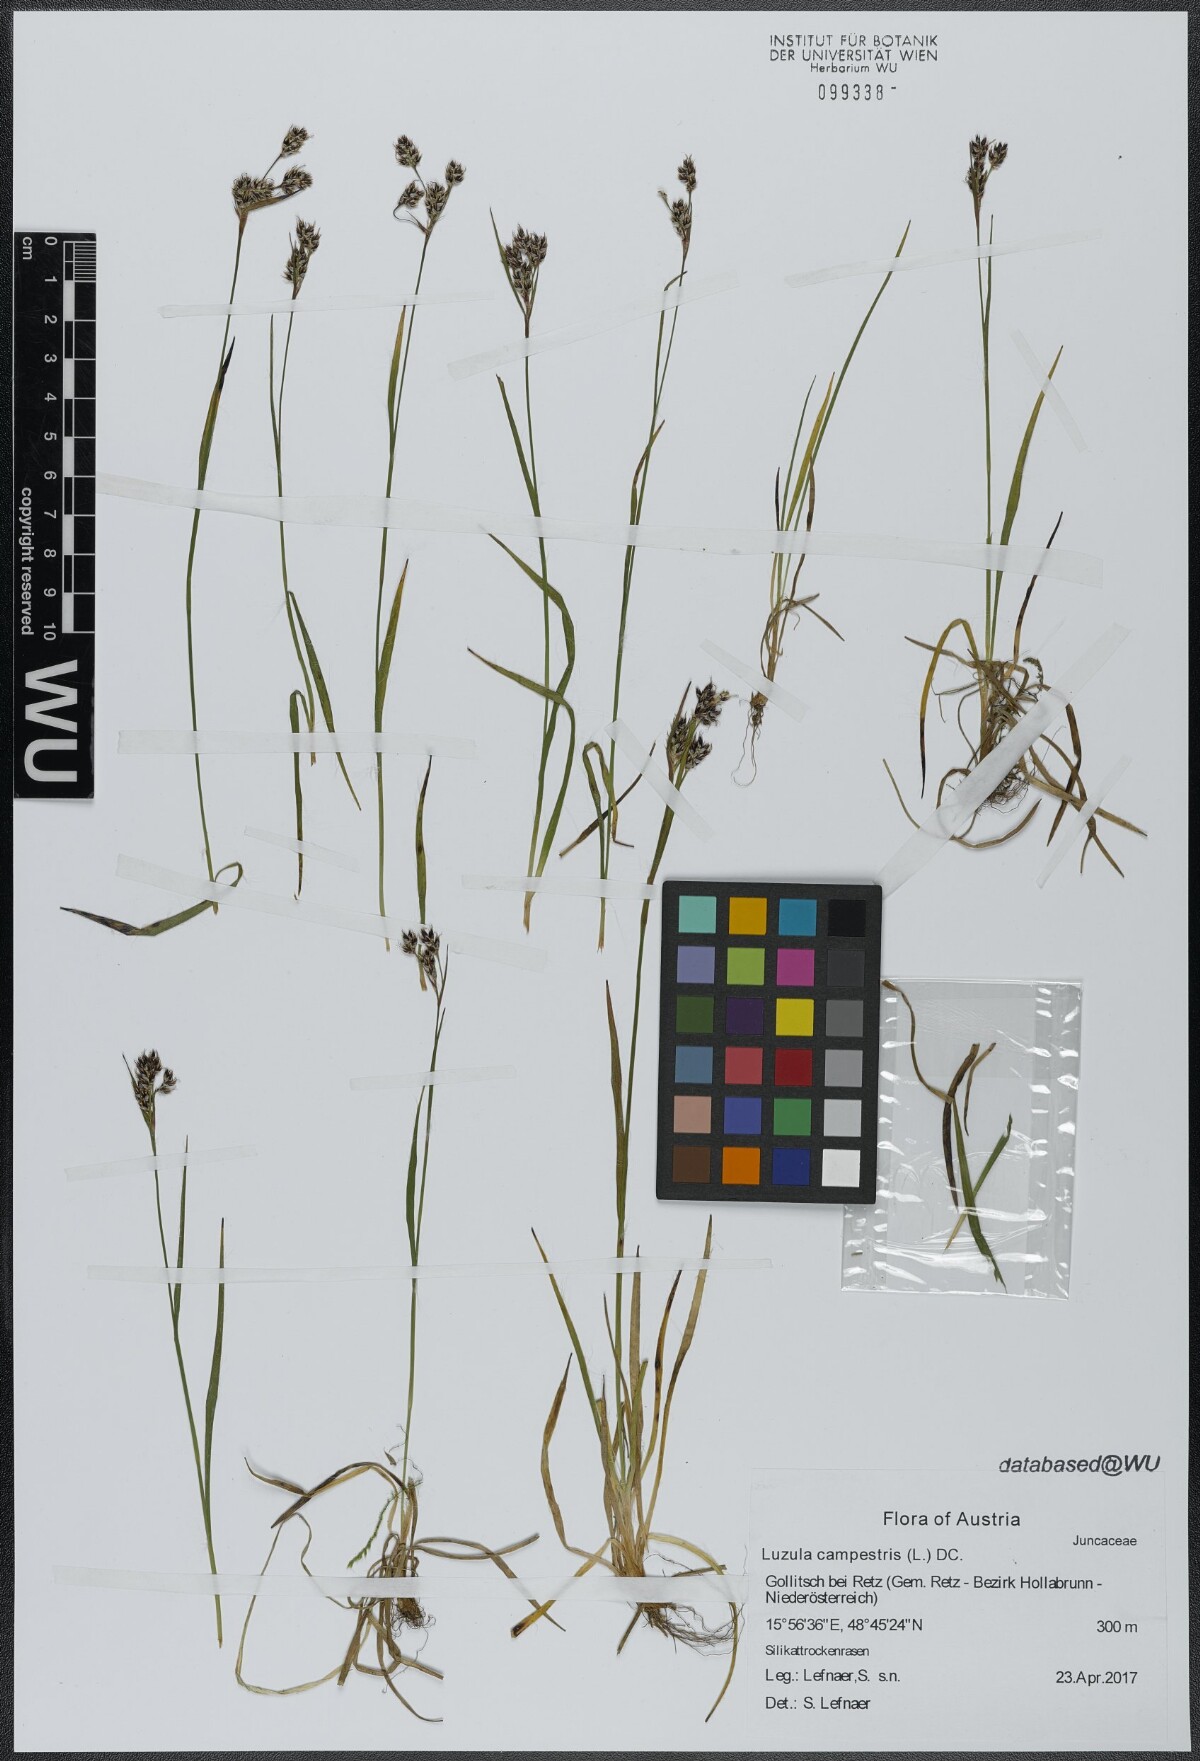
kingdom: Plantae
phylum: Tracheophyta
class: Liliopsida
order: Poales
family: Juncaceae
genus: Luzula
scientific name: Luzula campestris
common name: Field wood-rush
